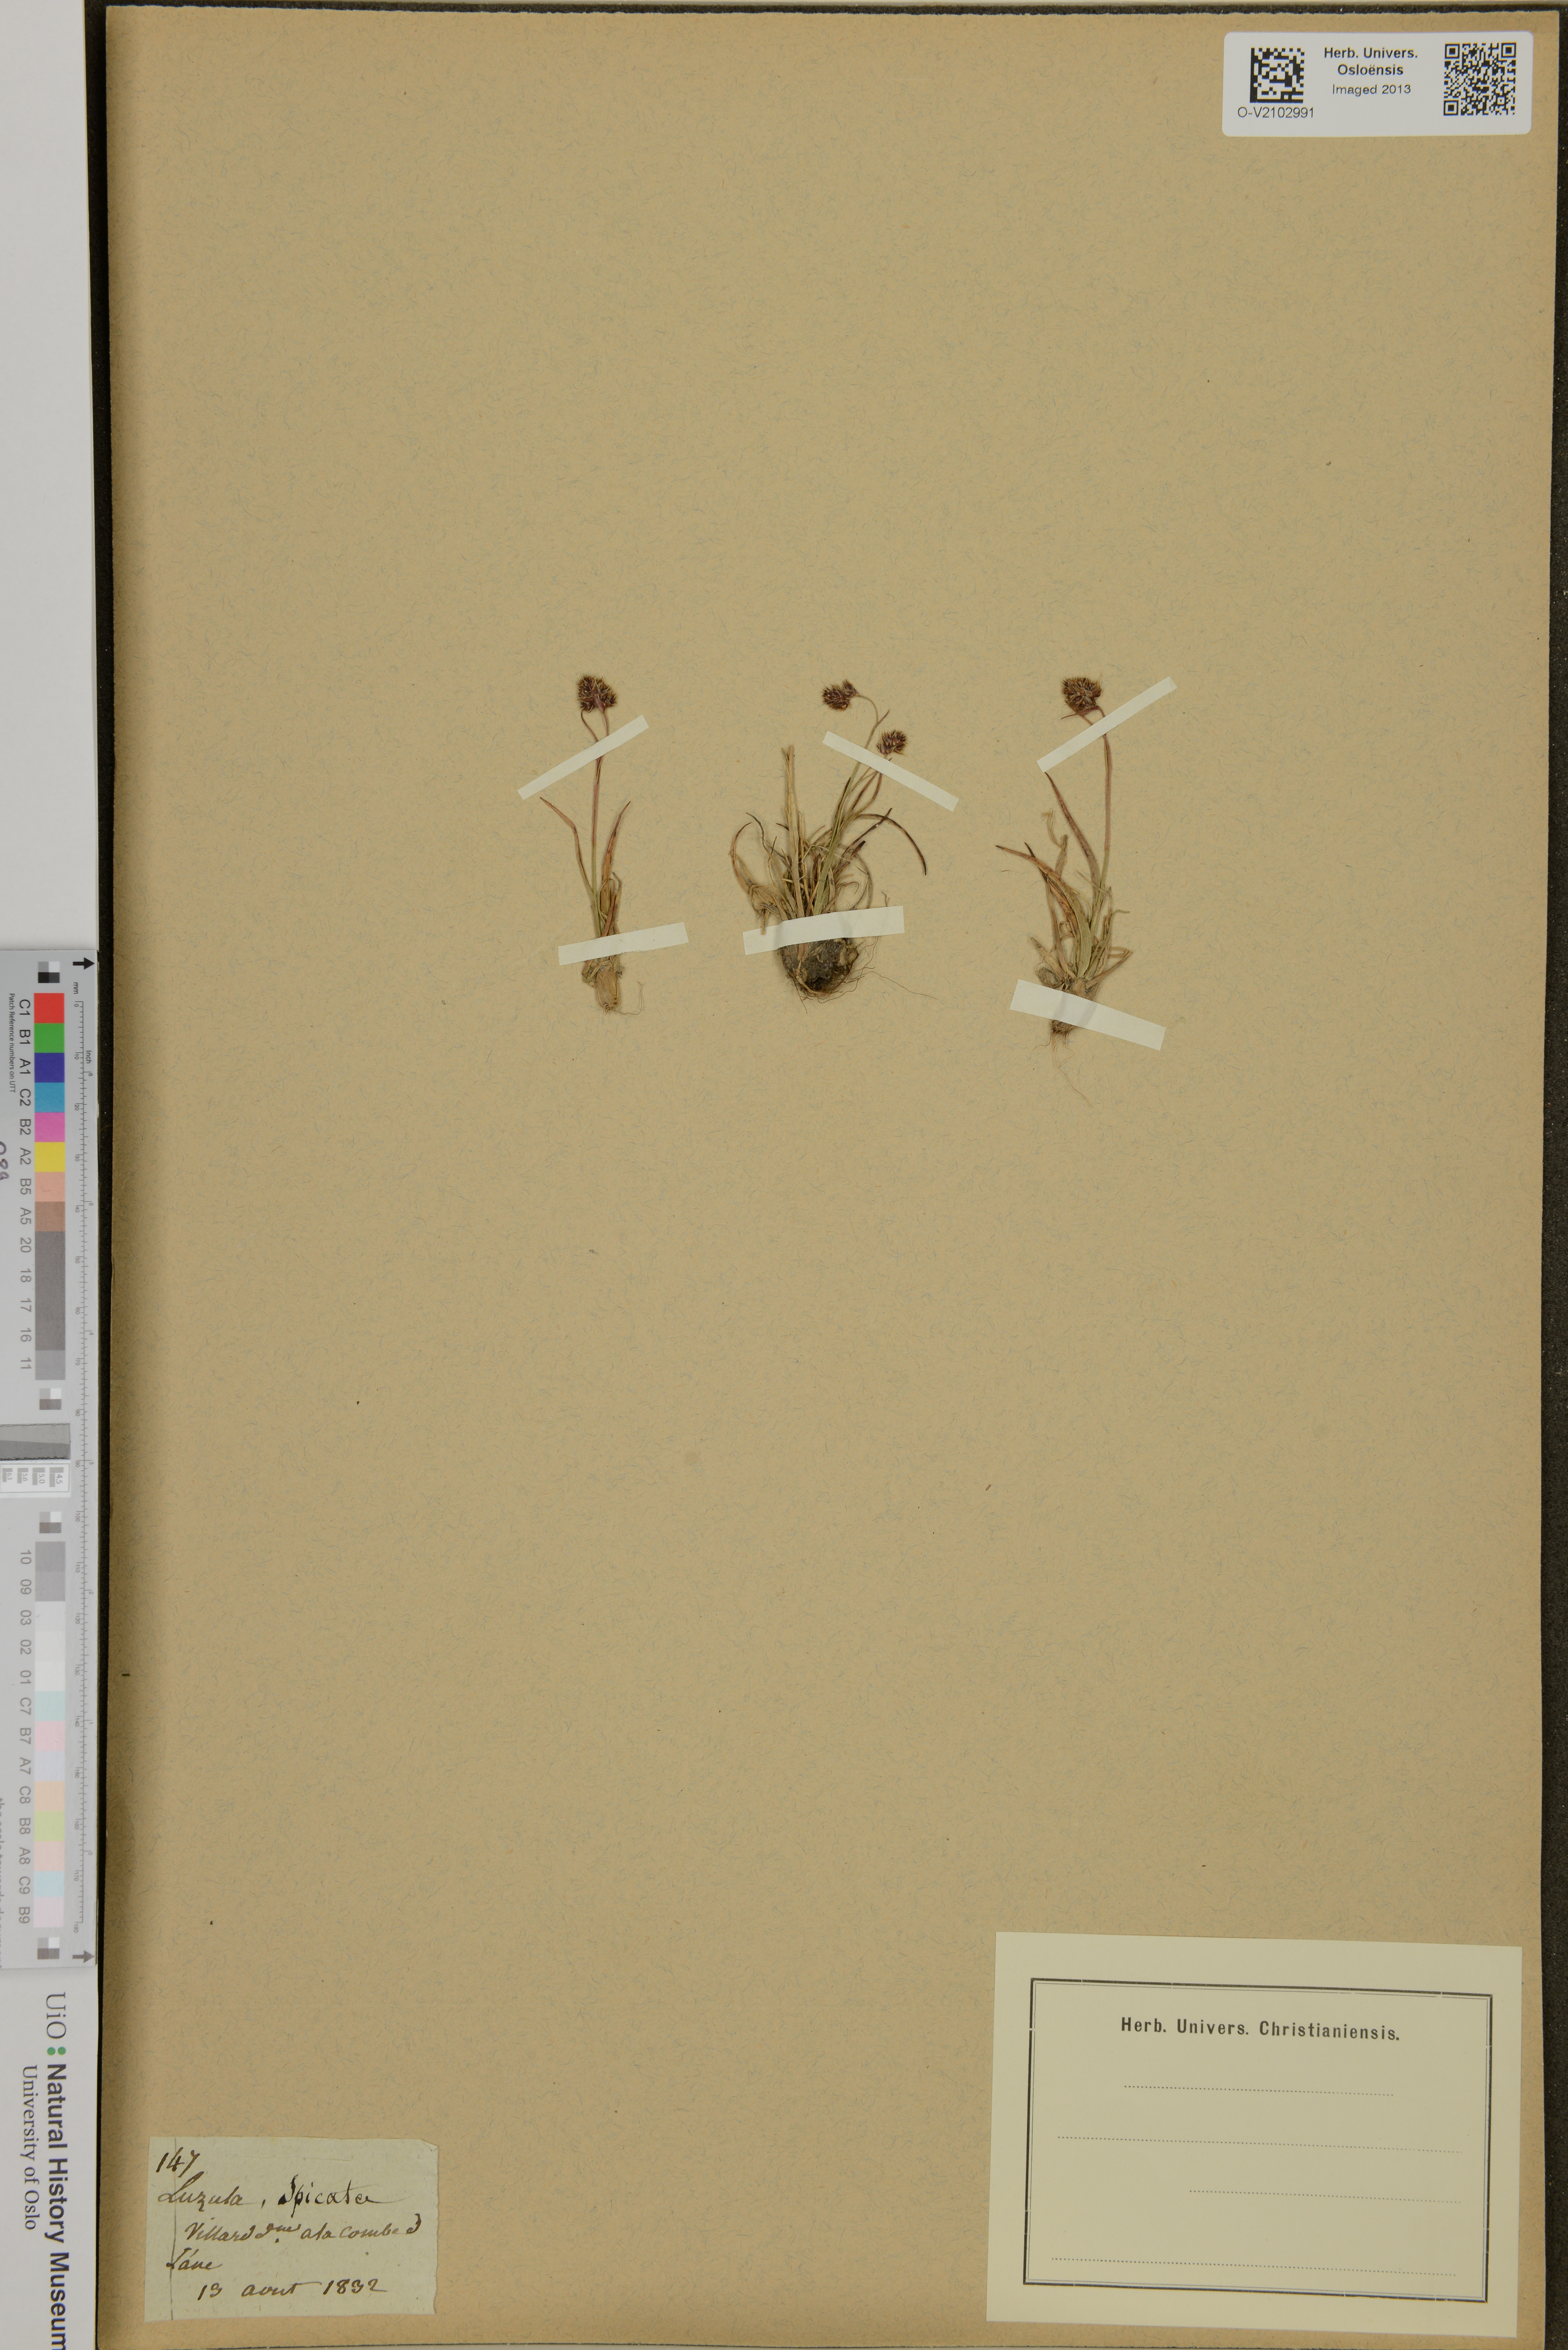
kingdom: Plantae
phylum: Tracheophyta
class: Liliopsida
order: Poales
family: Juncaceae
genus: Luzula
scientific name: Luzula spicata
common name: Spiked wood-rush
